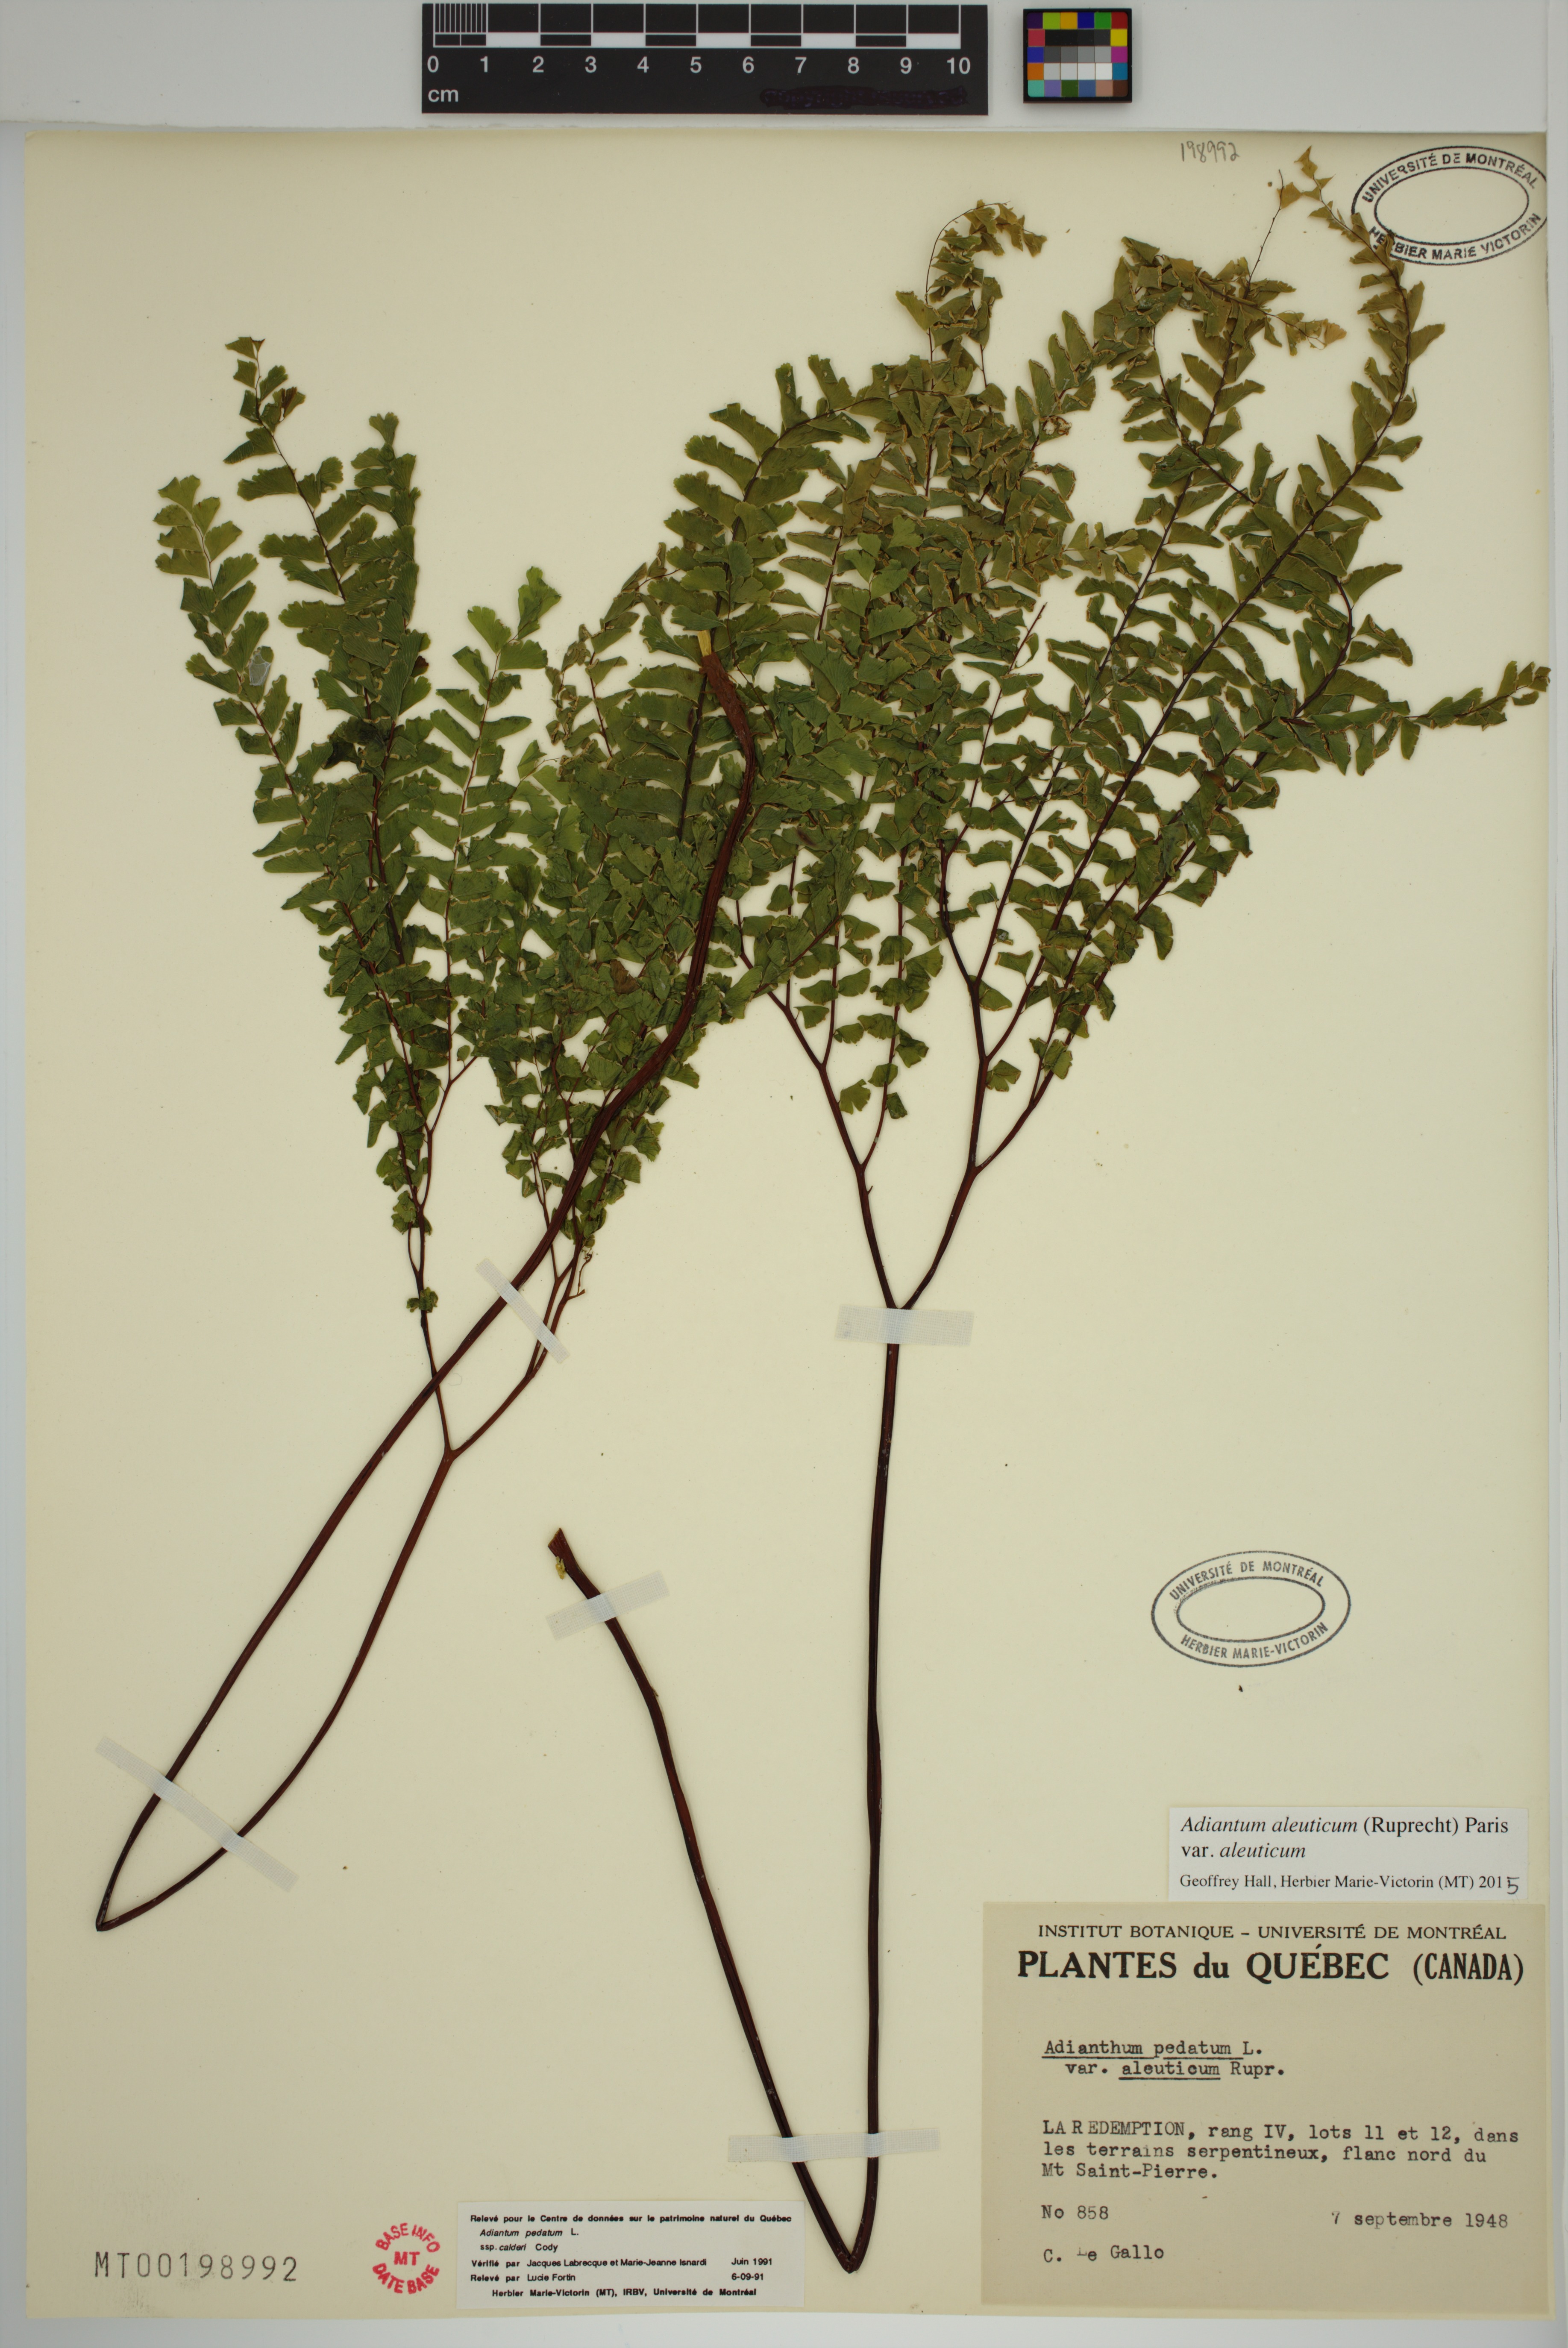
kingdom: Plantae
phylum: Tracheophyta
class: Polypodiopsida
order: Polypodiales
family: Pteridaceae
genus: Adiantum
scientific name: Adiantum aleuticum
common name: Aleutian maidenhair fern
